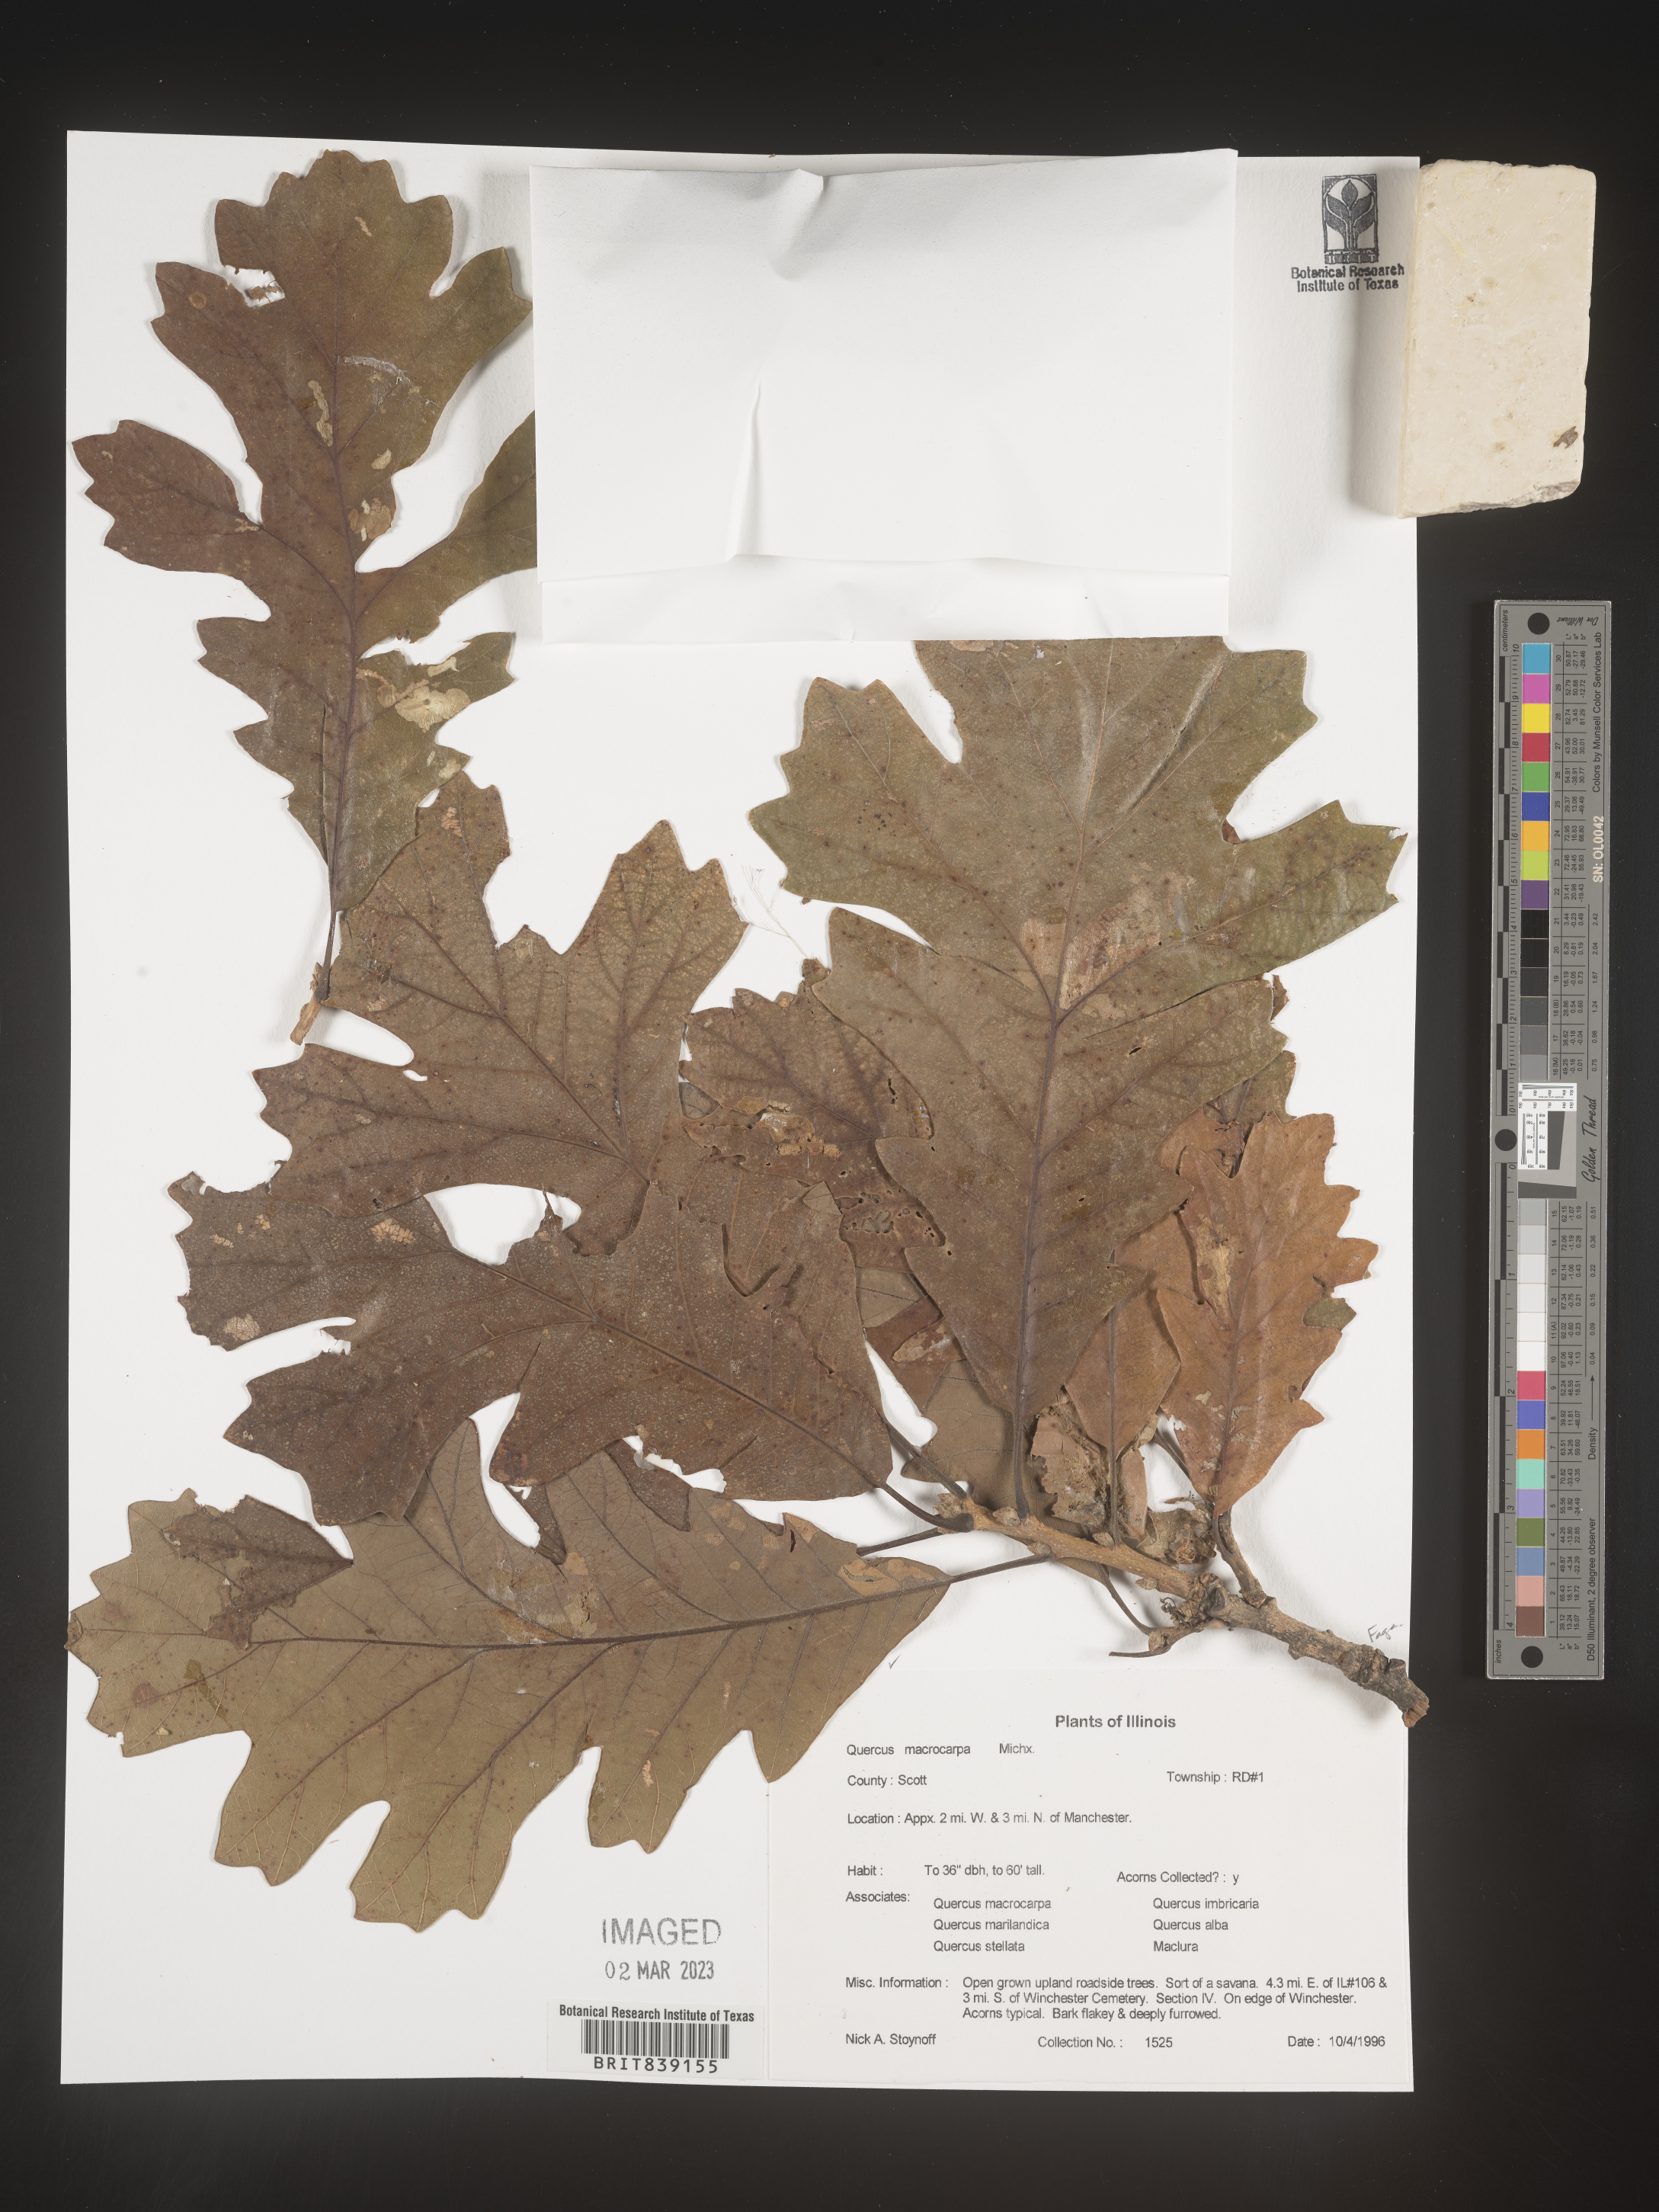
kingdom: Plantae
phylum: Tracheophyta
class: Magnoliopsida
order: Fagales
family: Fagaceae
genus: Quercus
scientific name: Quercus macrocarpa
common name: Bur oak
